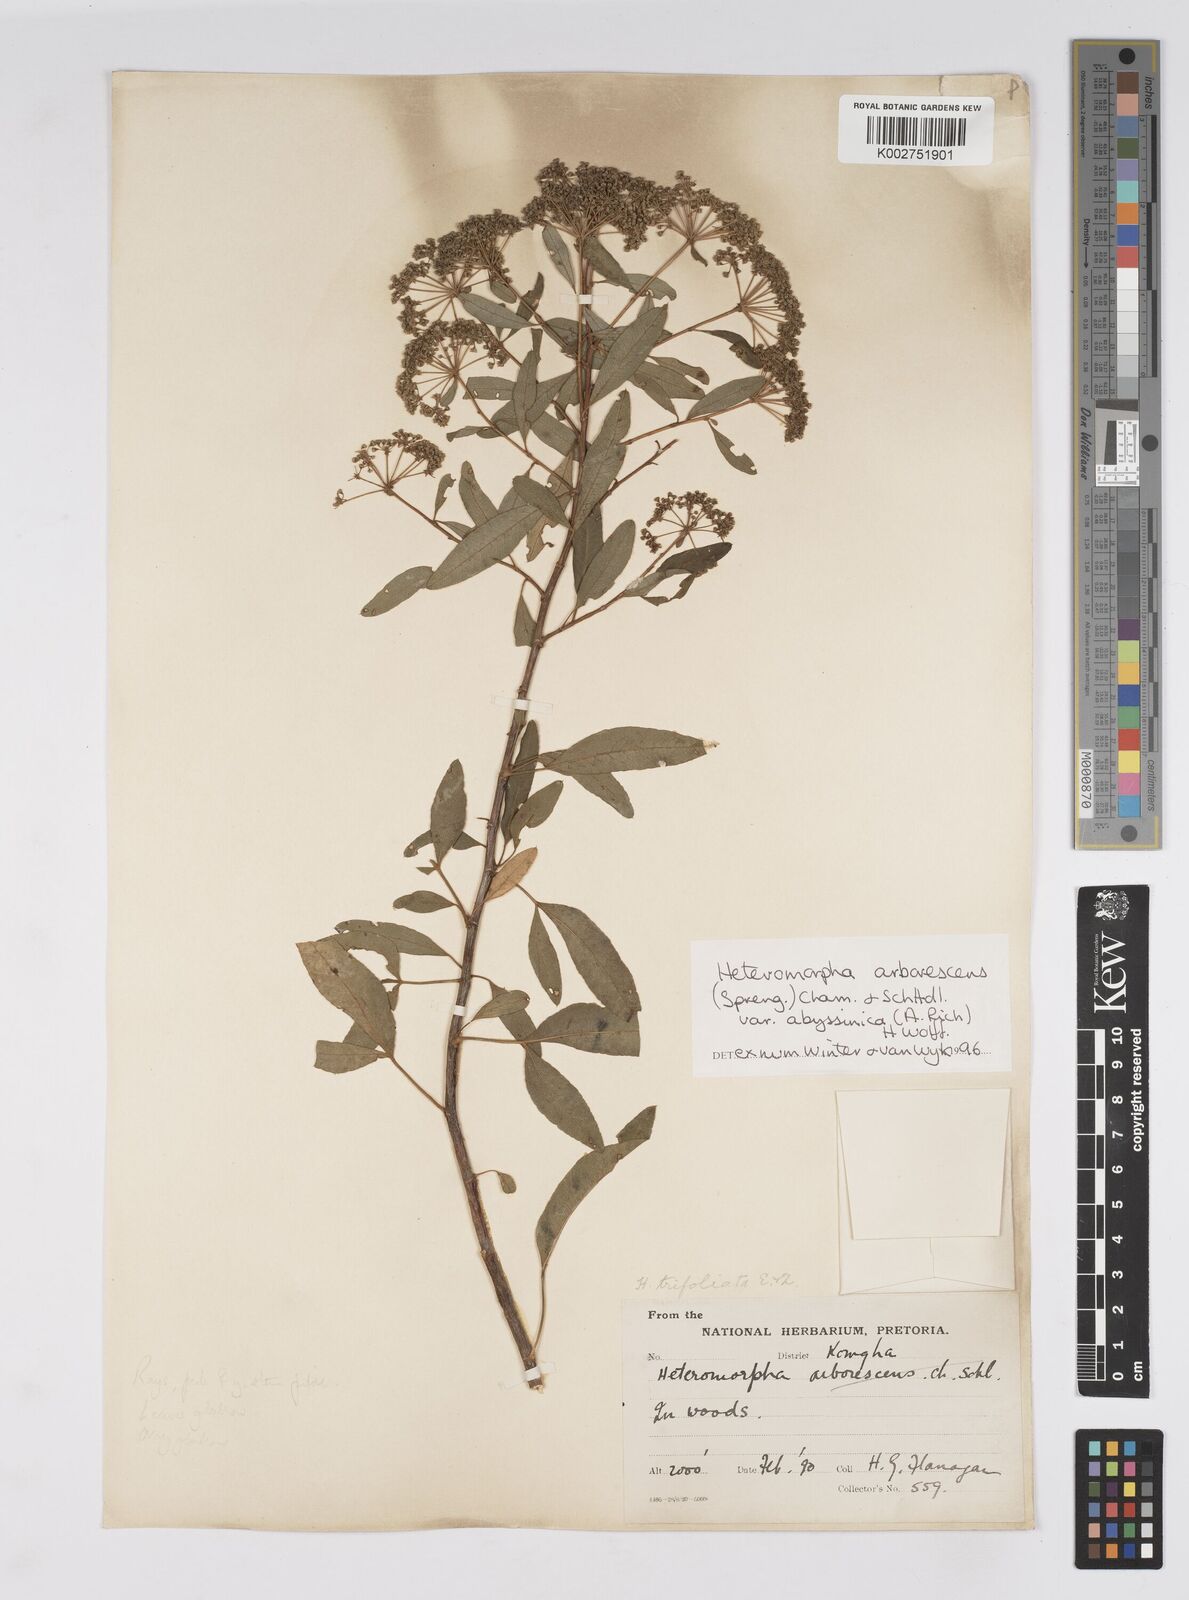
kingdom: Plantae
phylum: Tracheophyta
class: Magnoliopsida
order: Apiales
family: Apiaceae
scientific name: Apiaceae
